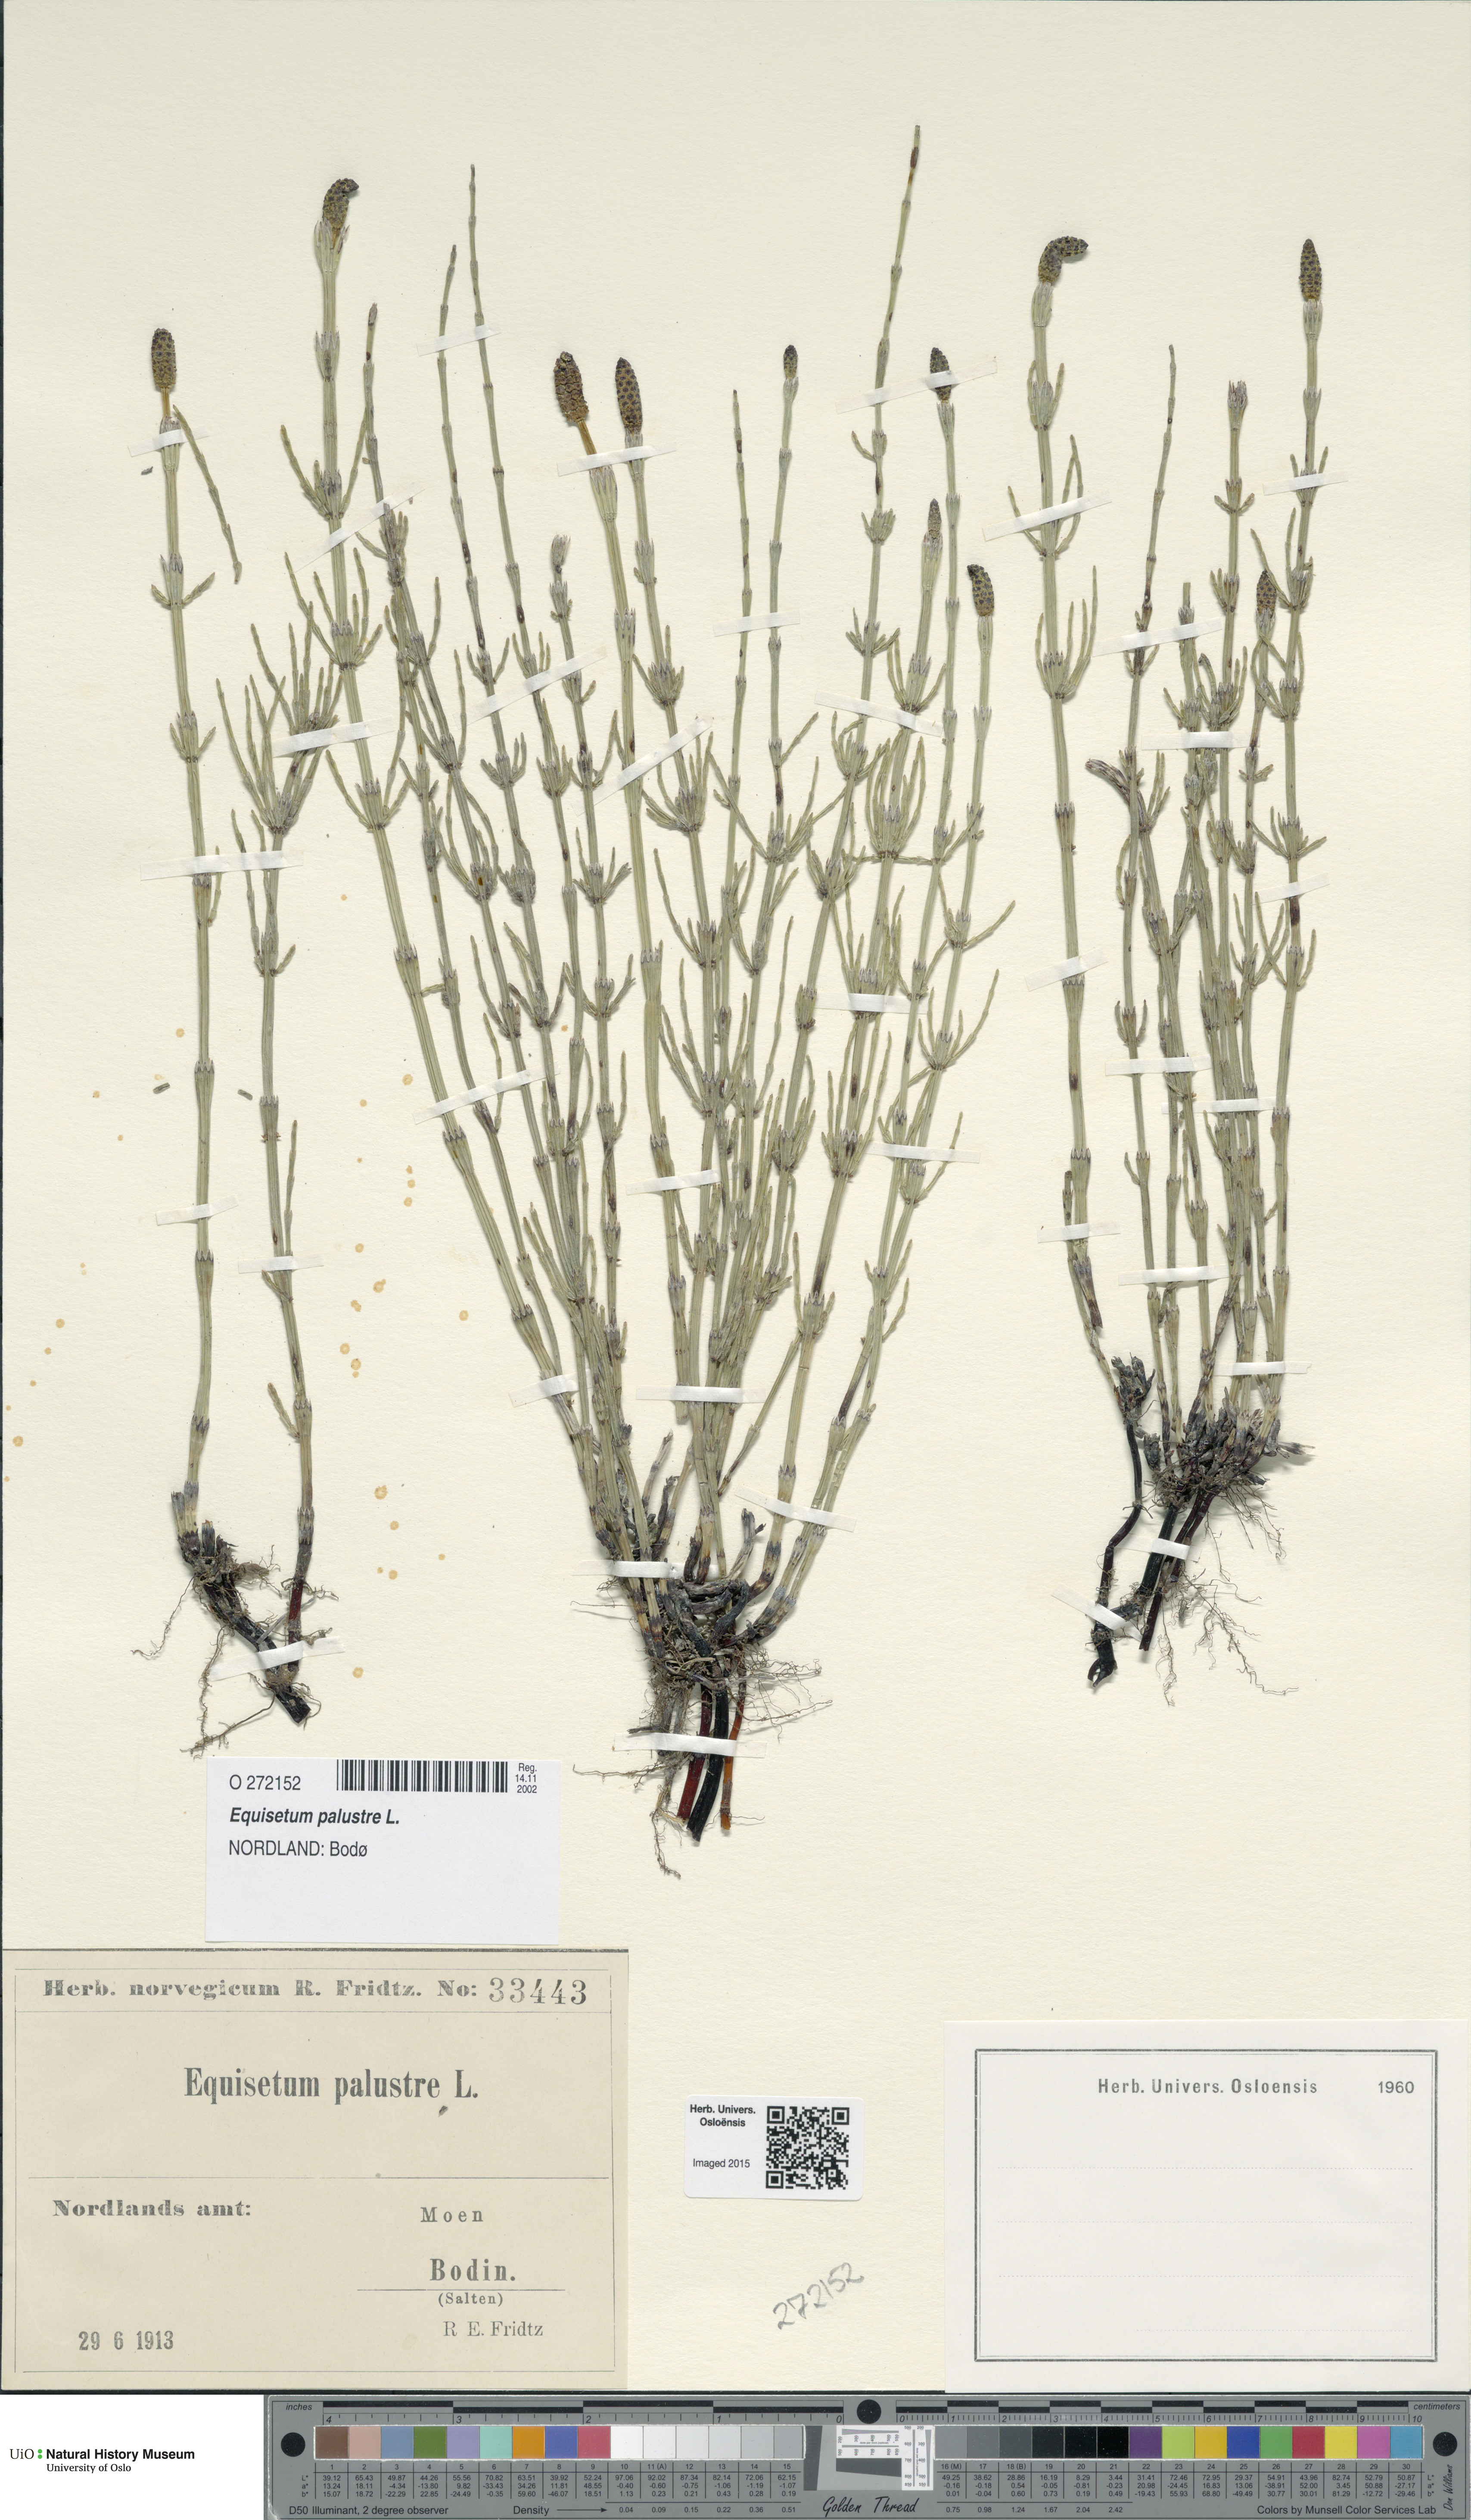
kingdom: Plantae
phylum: Tracheophyta
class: Polypodiopsida
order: Equisetales
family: Equisetaceae
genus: Equisetum
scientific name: Equisetum palustre
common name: Marsh horsetail
